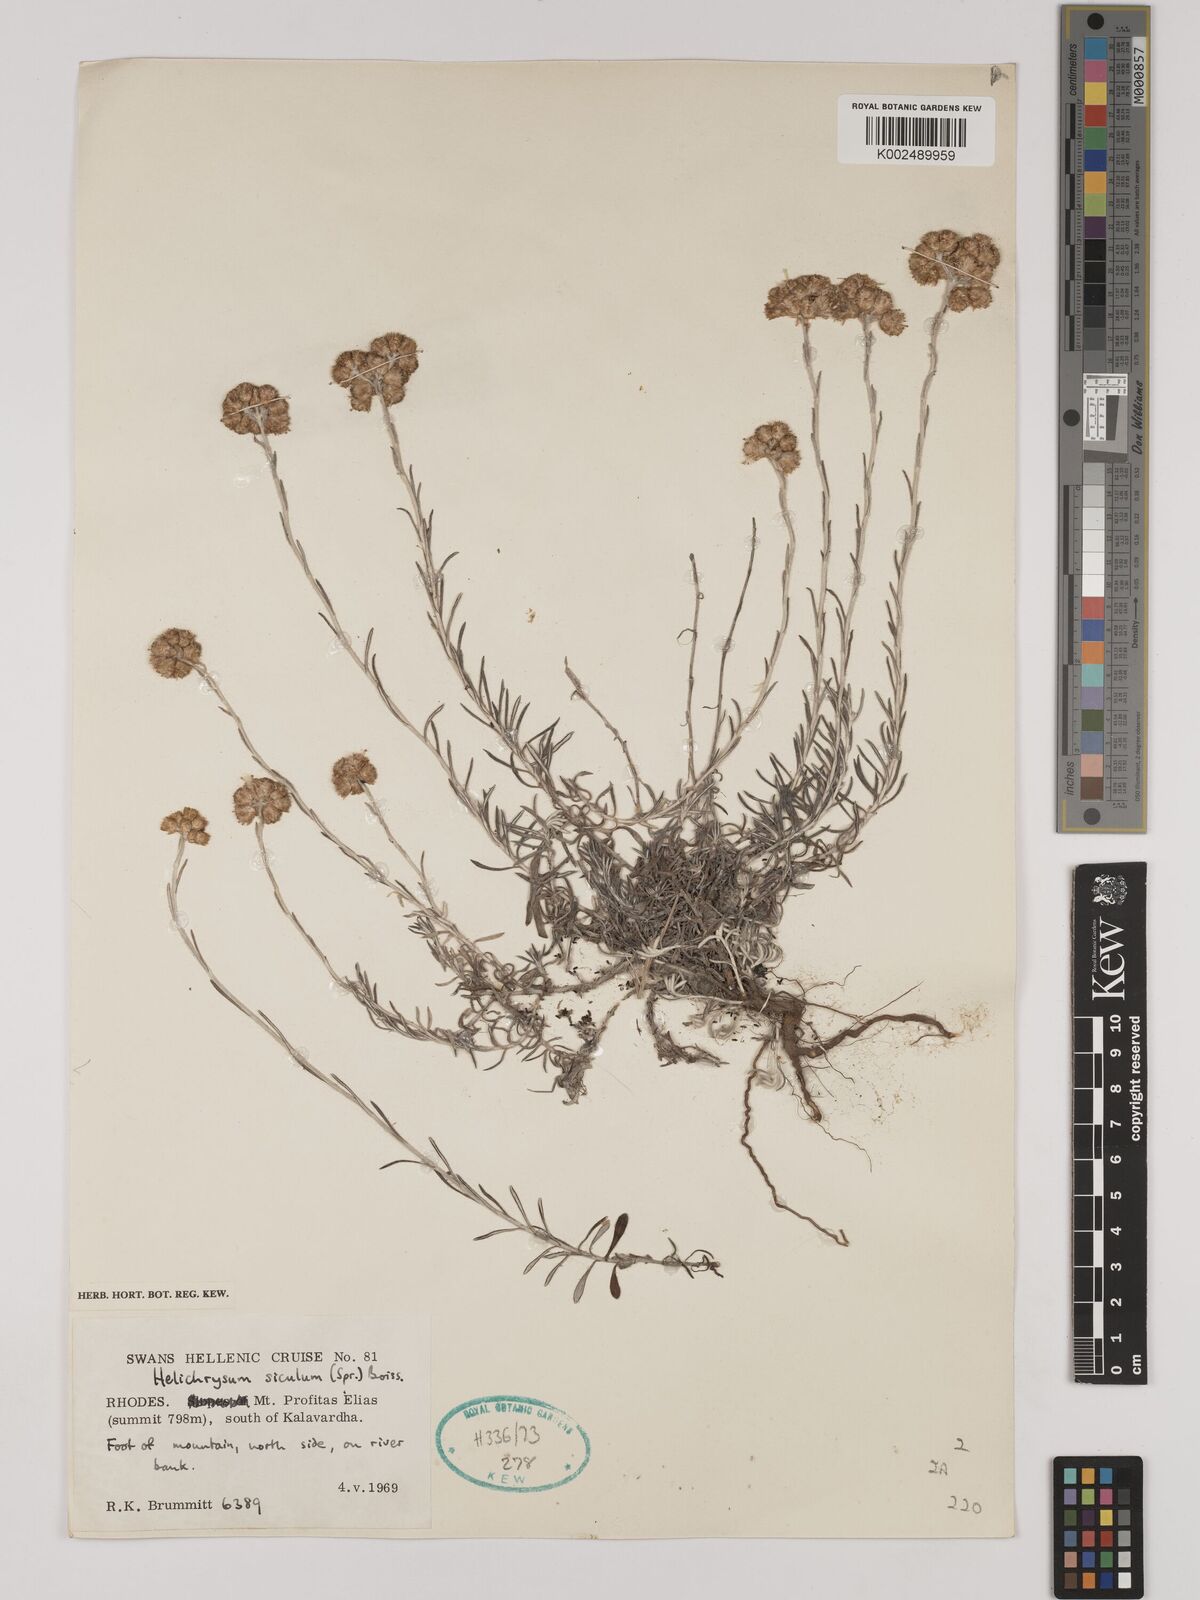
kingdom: Plantae
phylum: Tracheophyta
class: Magnoliopsida
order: Asterales
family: Asteraceae
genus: Helichrysum
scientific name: Helichrysum italicum
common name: Curryplant
